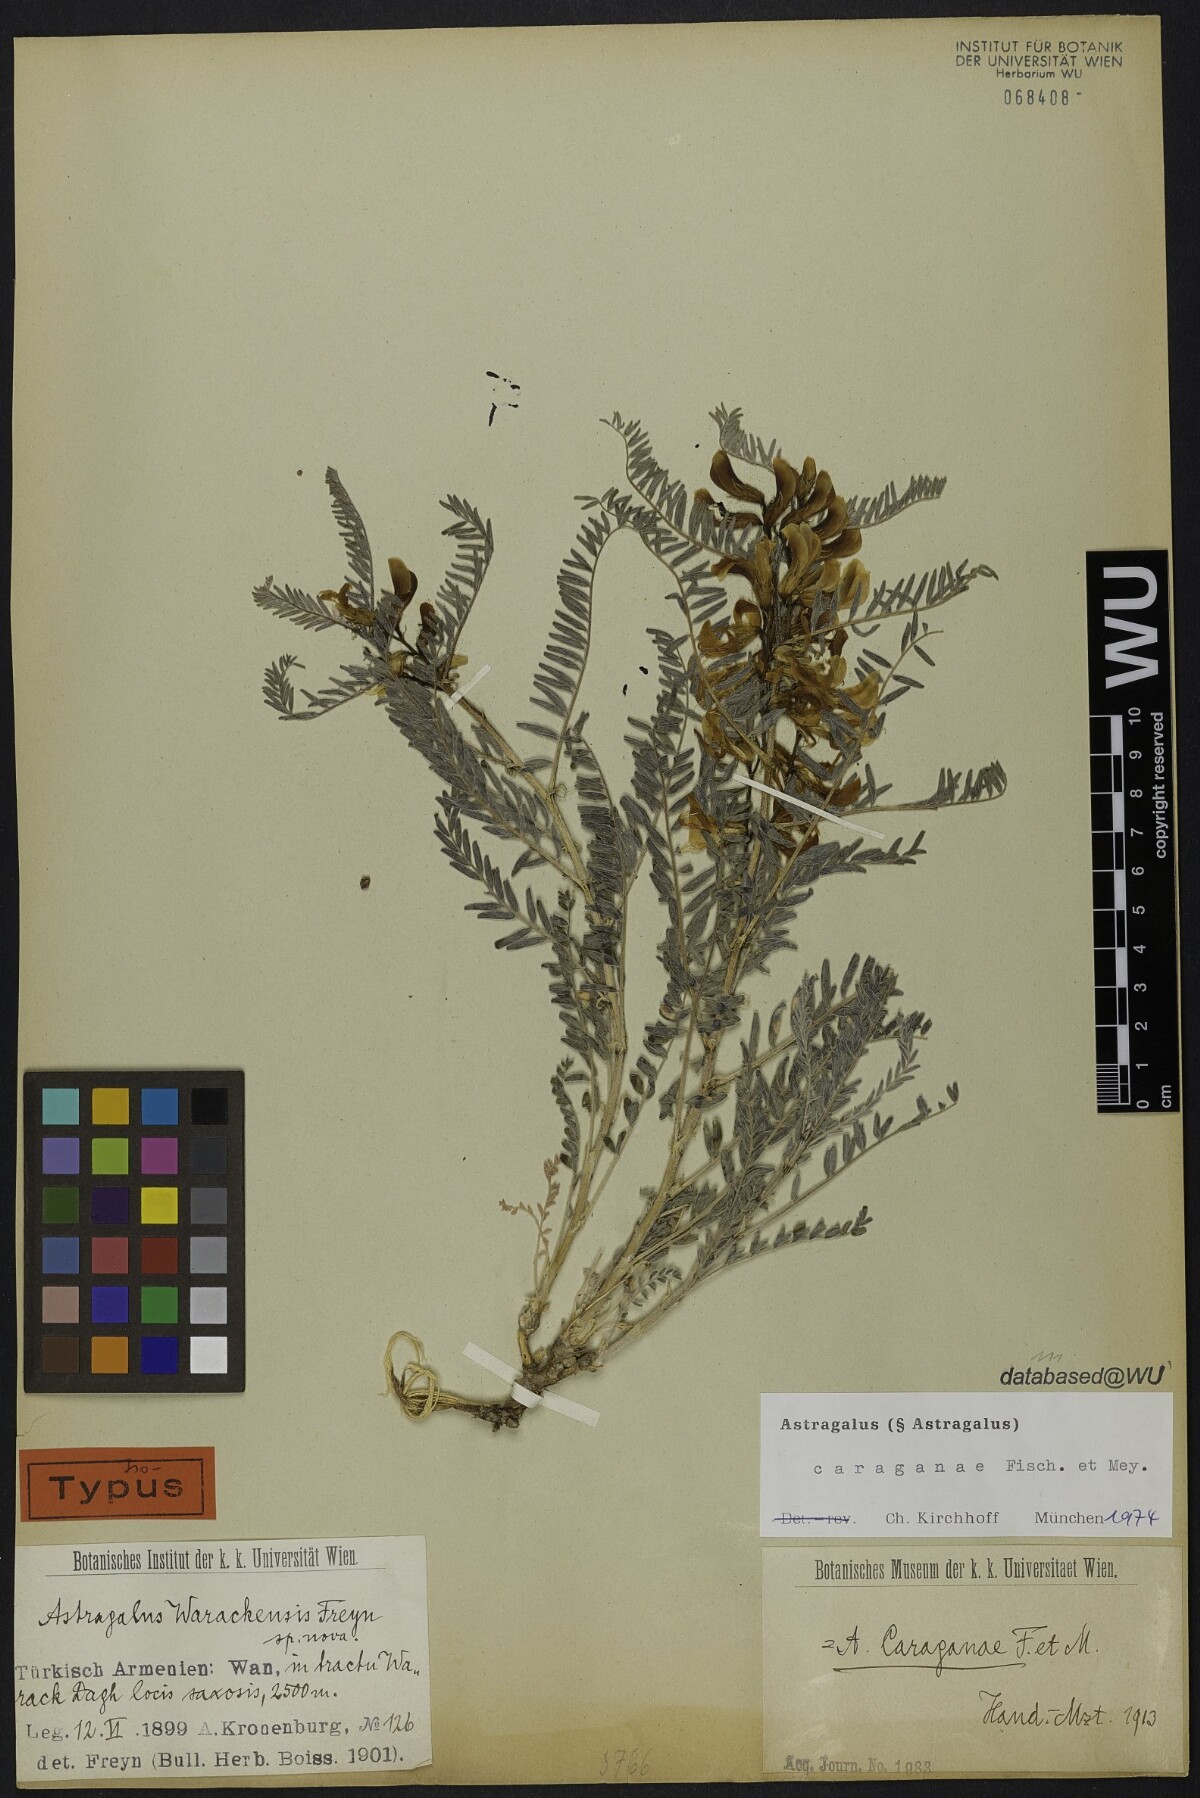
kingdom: Plantae
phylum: Tracheophyta
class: Magnoliopsida
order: Fabales
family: Fabaceae
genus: Astragalus
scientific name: Astragalus caraganae
